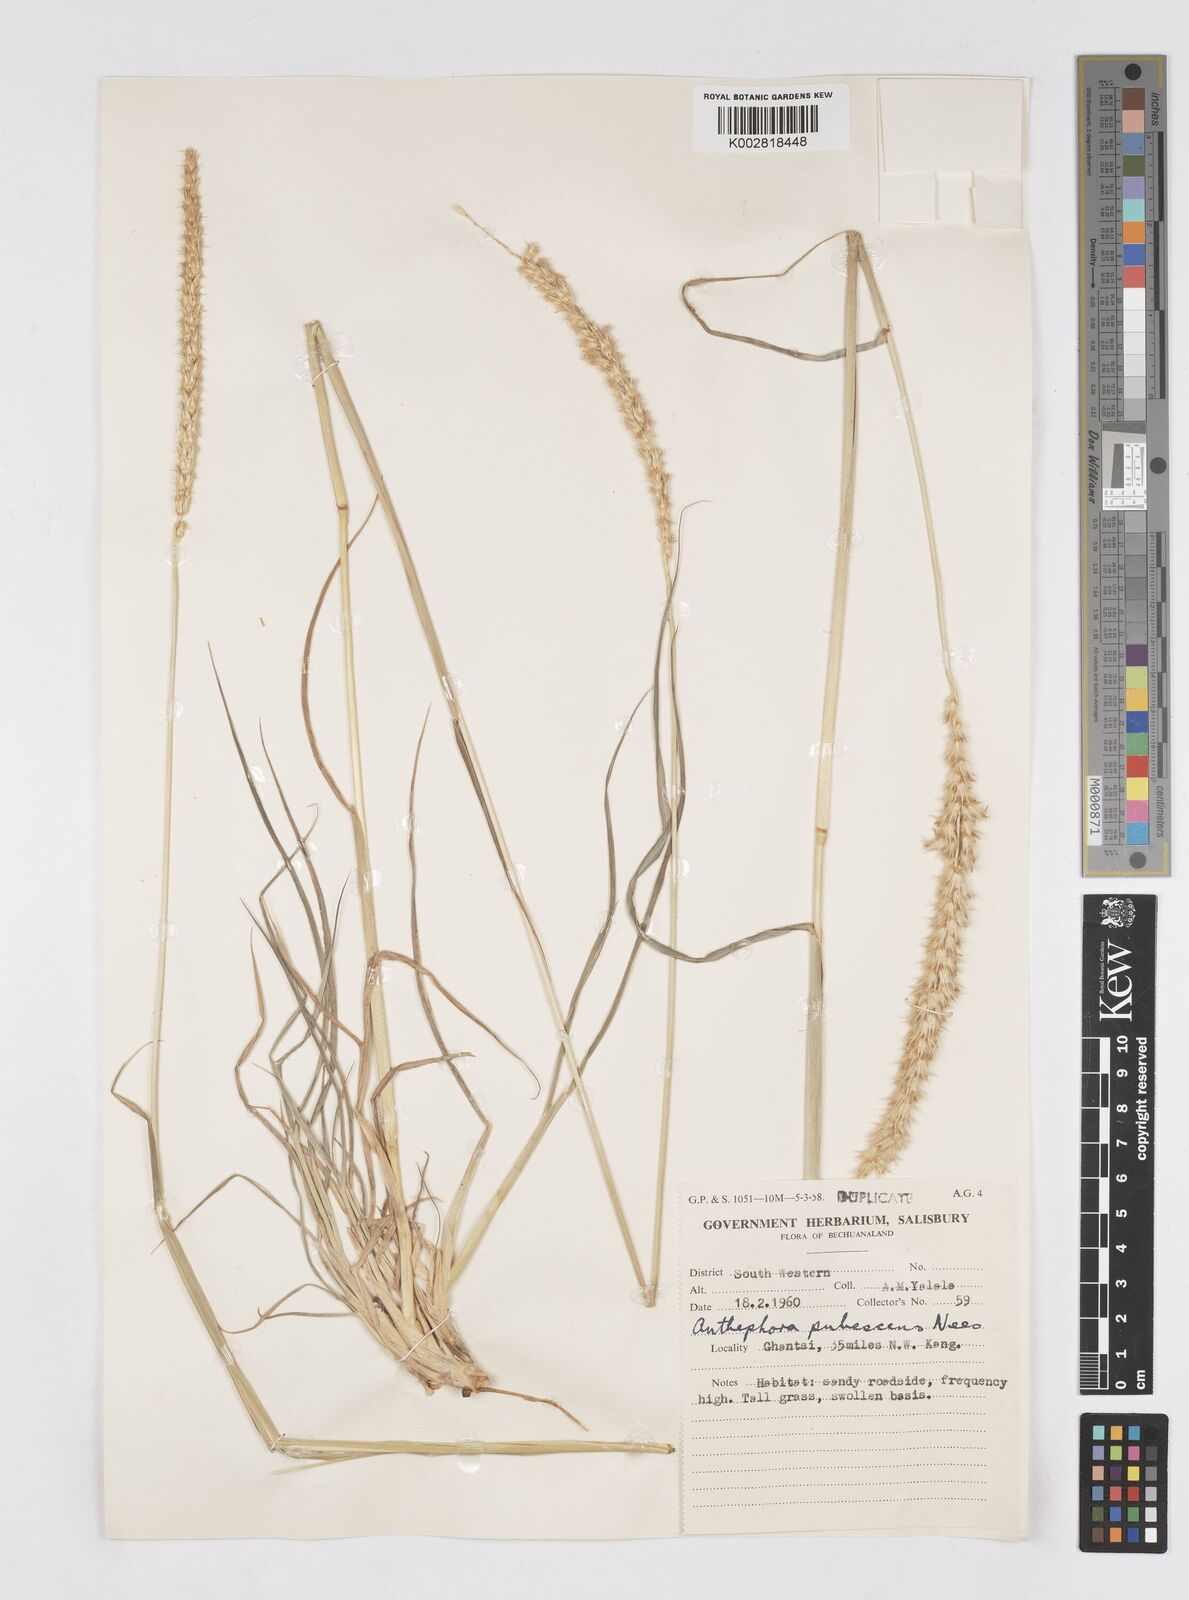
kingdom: Plantae
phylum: Tracheophyta
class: Liliopsida
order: Poales
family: Poaceae
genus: Anthephora
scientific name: Anthephora pubescens
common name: Wool grass
